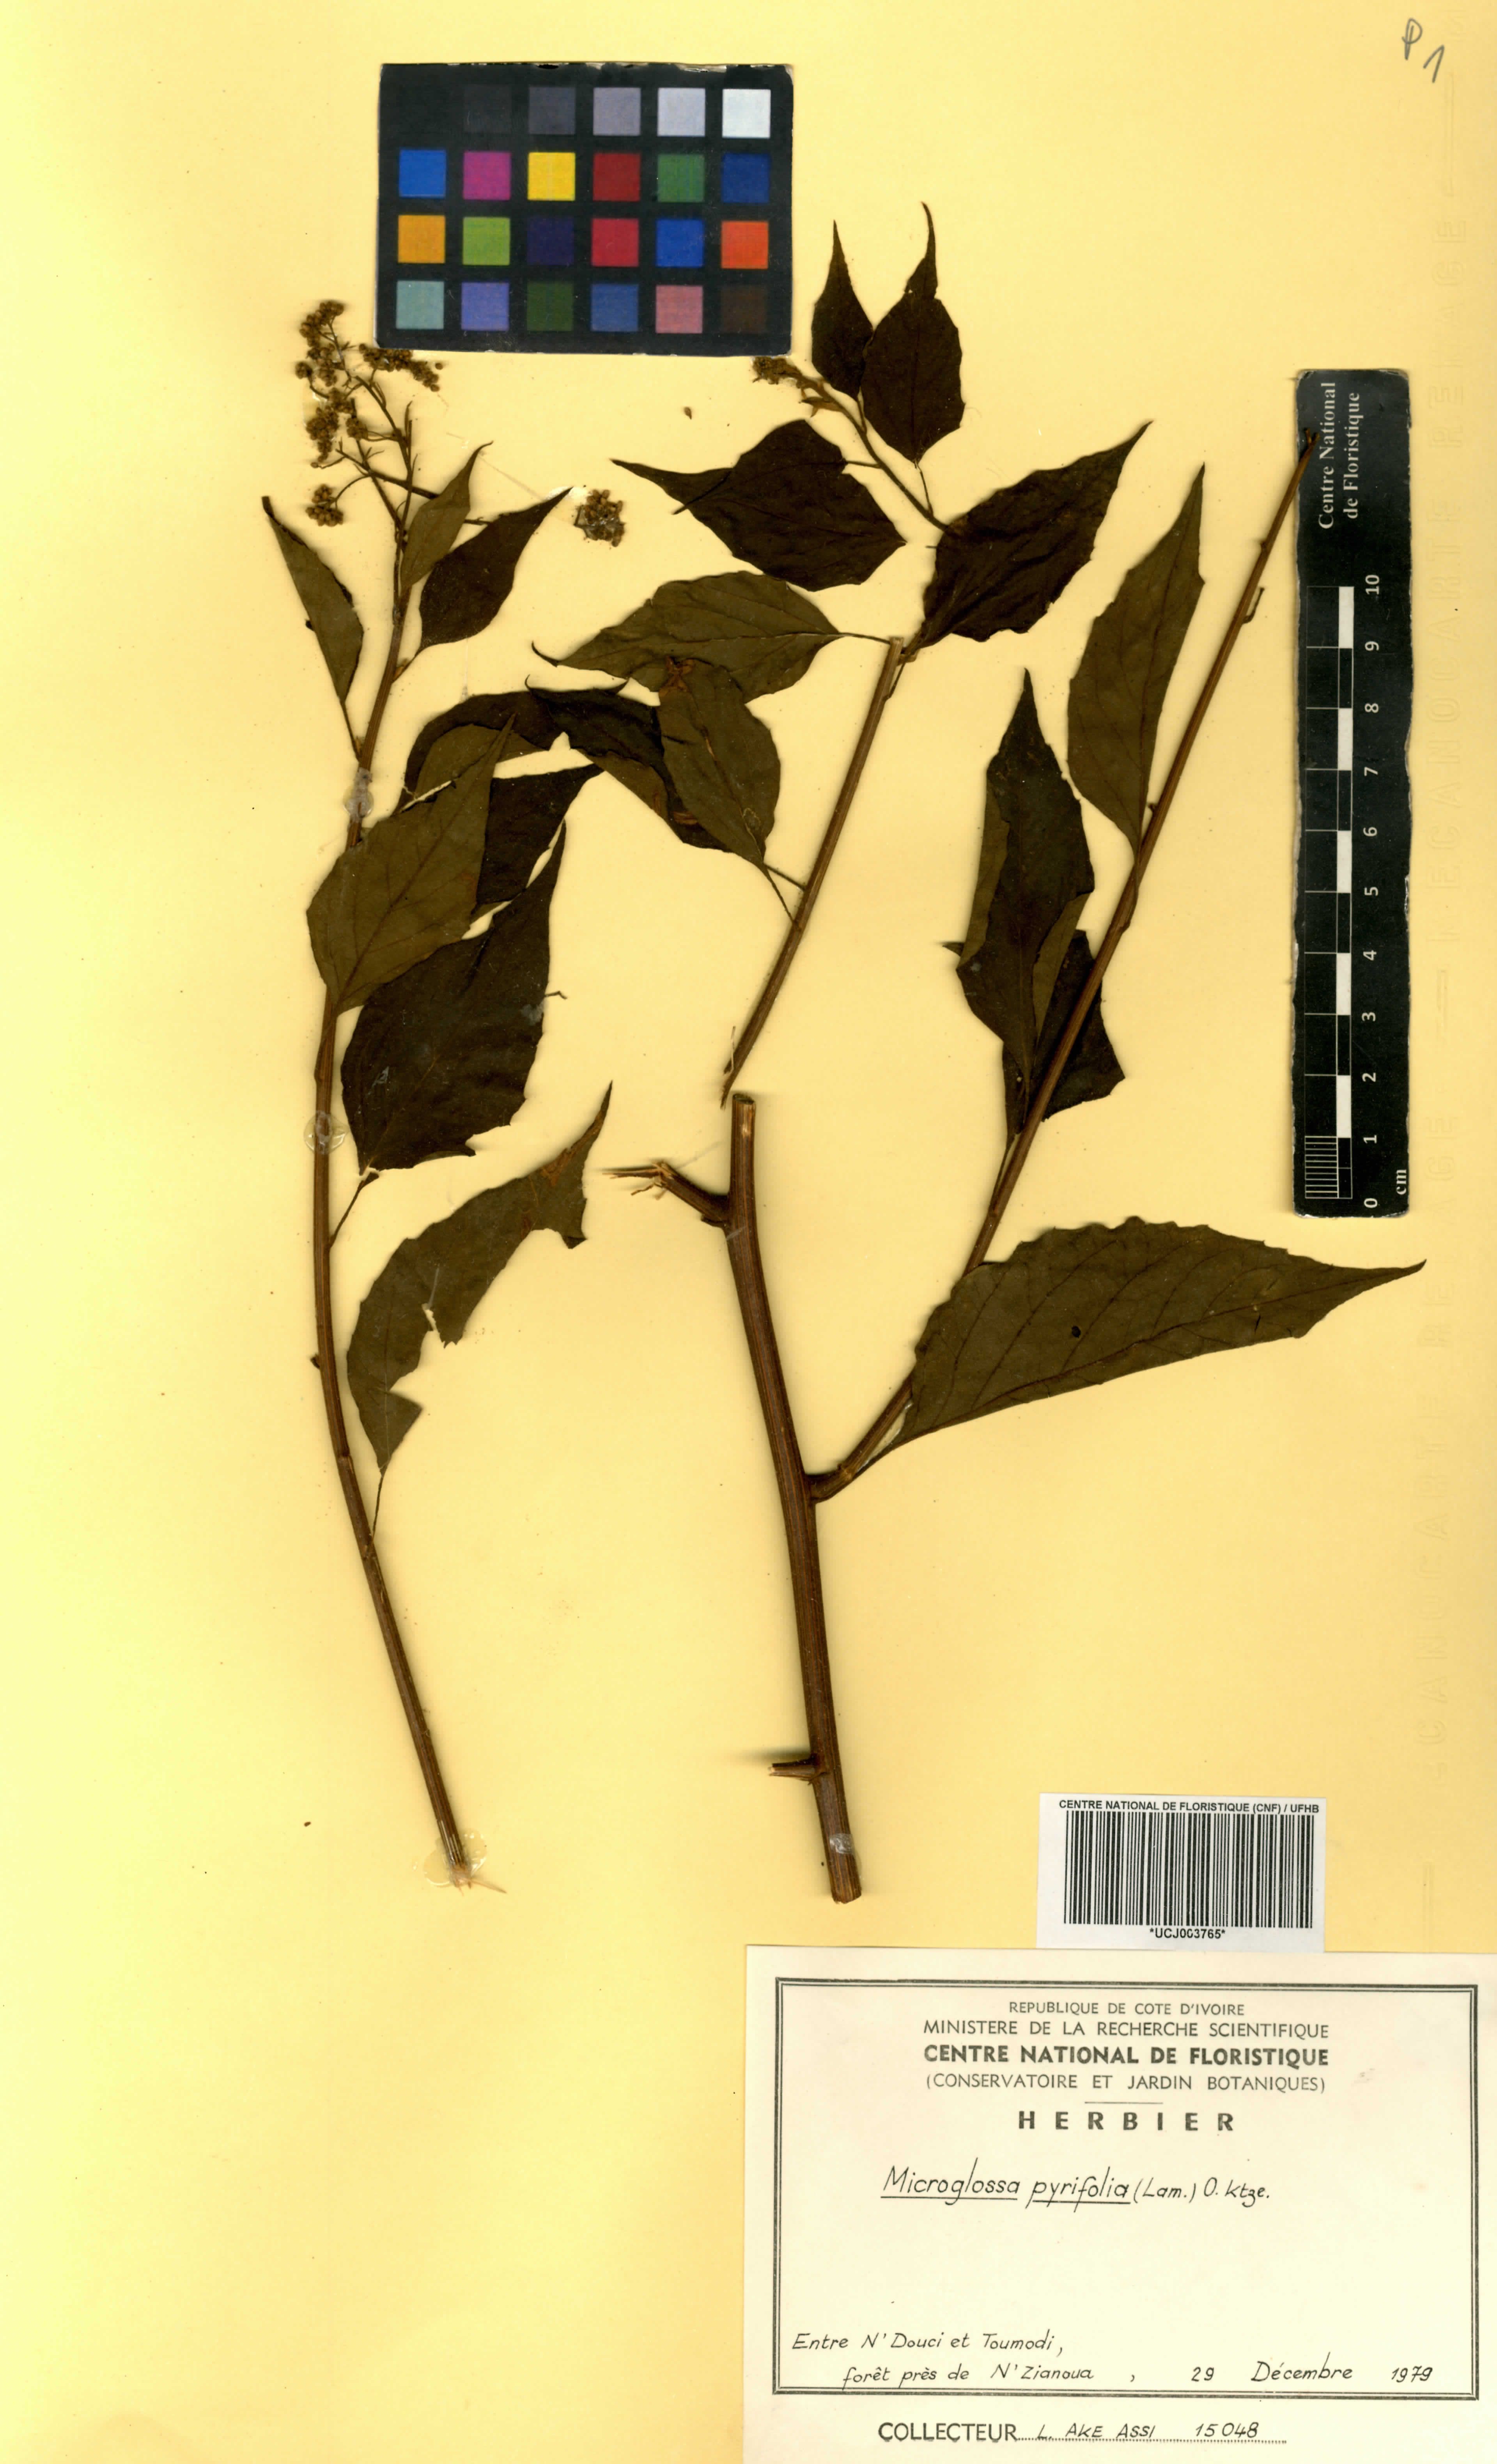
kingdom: Plantae
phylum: Tracheophyta
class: Magnoliopsida
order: Asterales
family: Asteraceae
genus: Microglossa
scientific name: Microglossa pyrifolia
